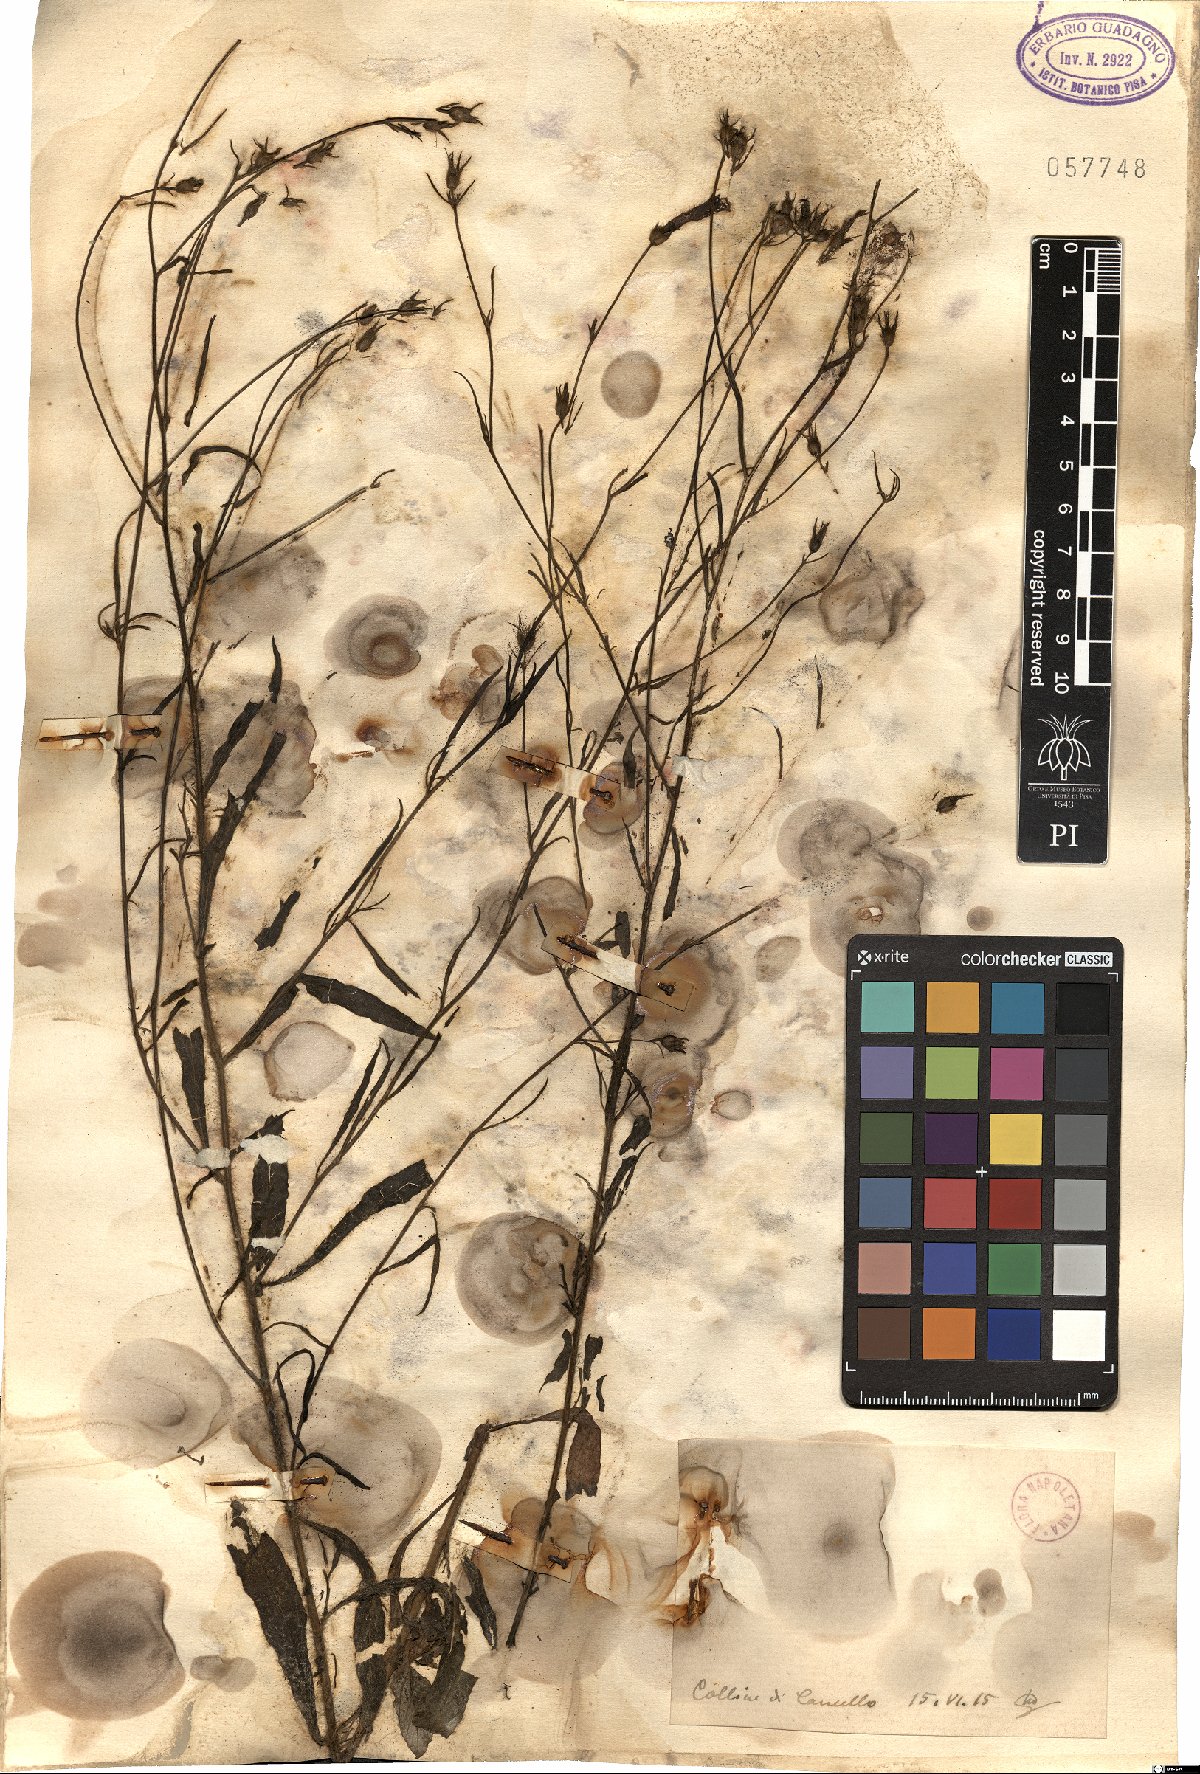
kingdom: Plantae
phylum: Tracheophyta
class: Magnoliopsida
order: Solanales
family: Convolvulaceae
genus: Convolvulus
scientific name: Convolvulus
